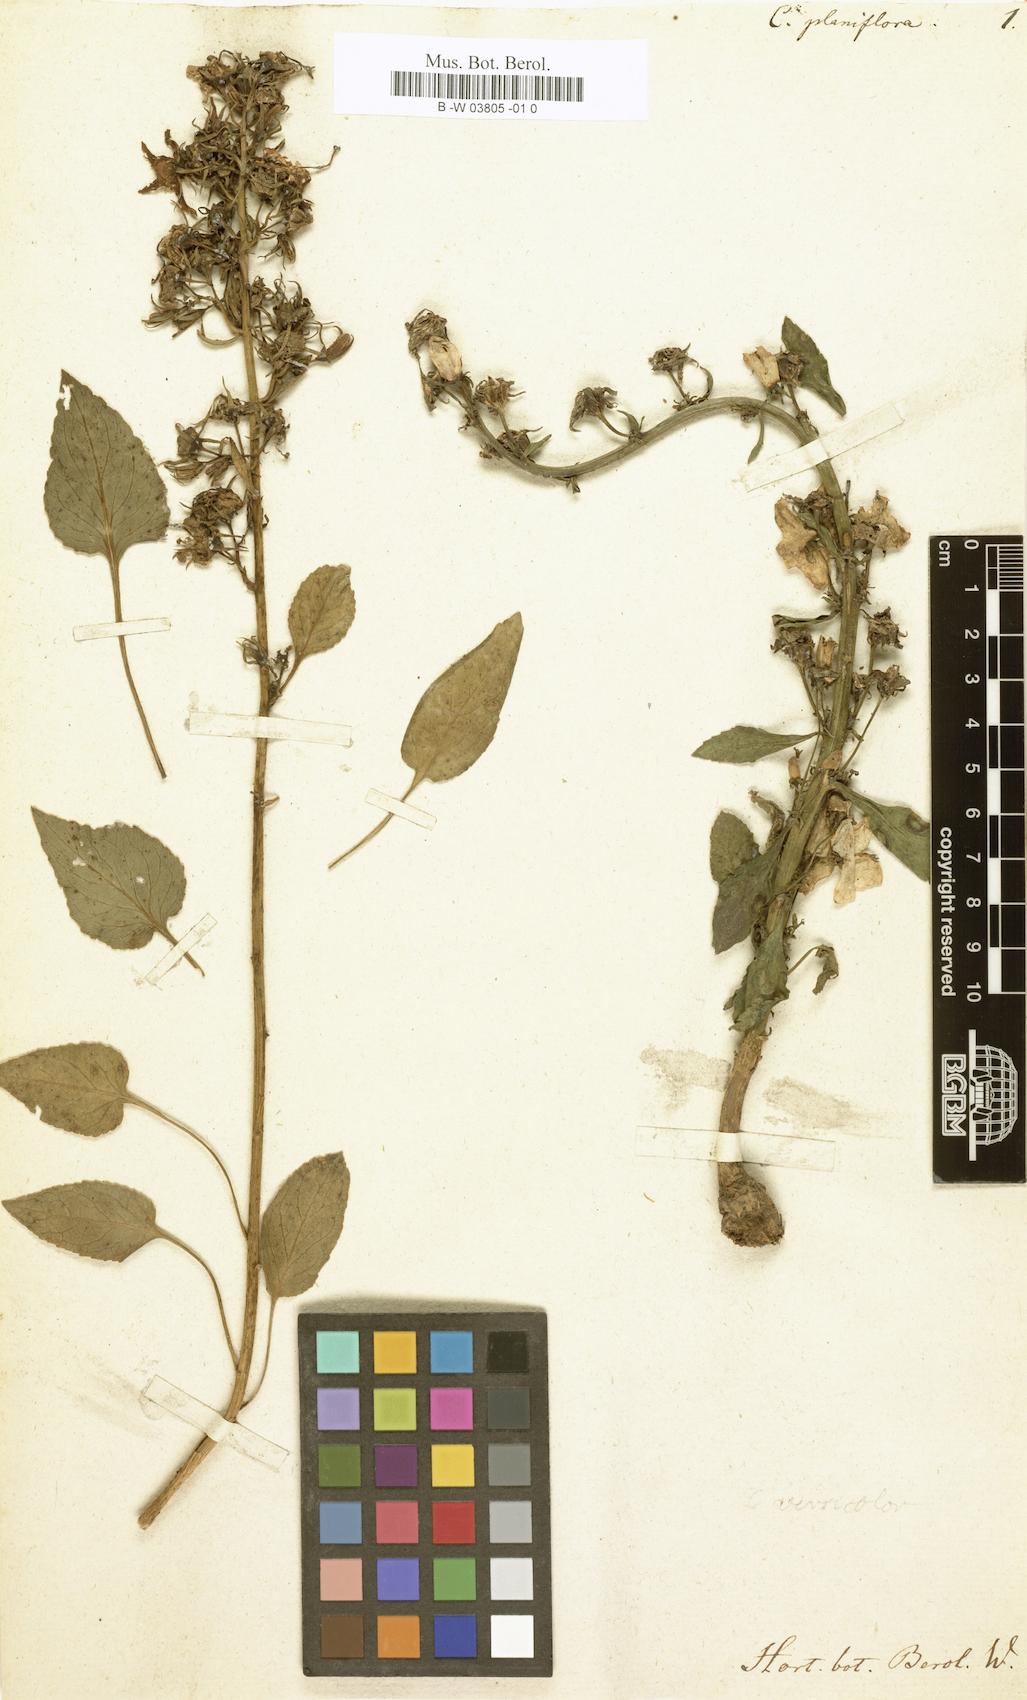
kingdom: Plantae
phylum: Tracheophyta
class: Magnoliopsida
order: Asterales
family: Campanulaceae
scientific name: Campanulaceae
